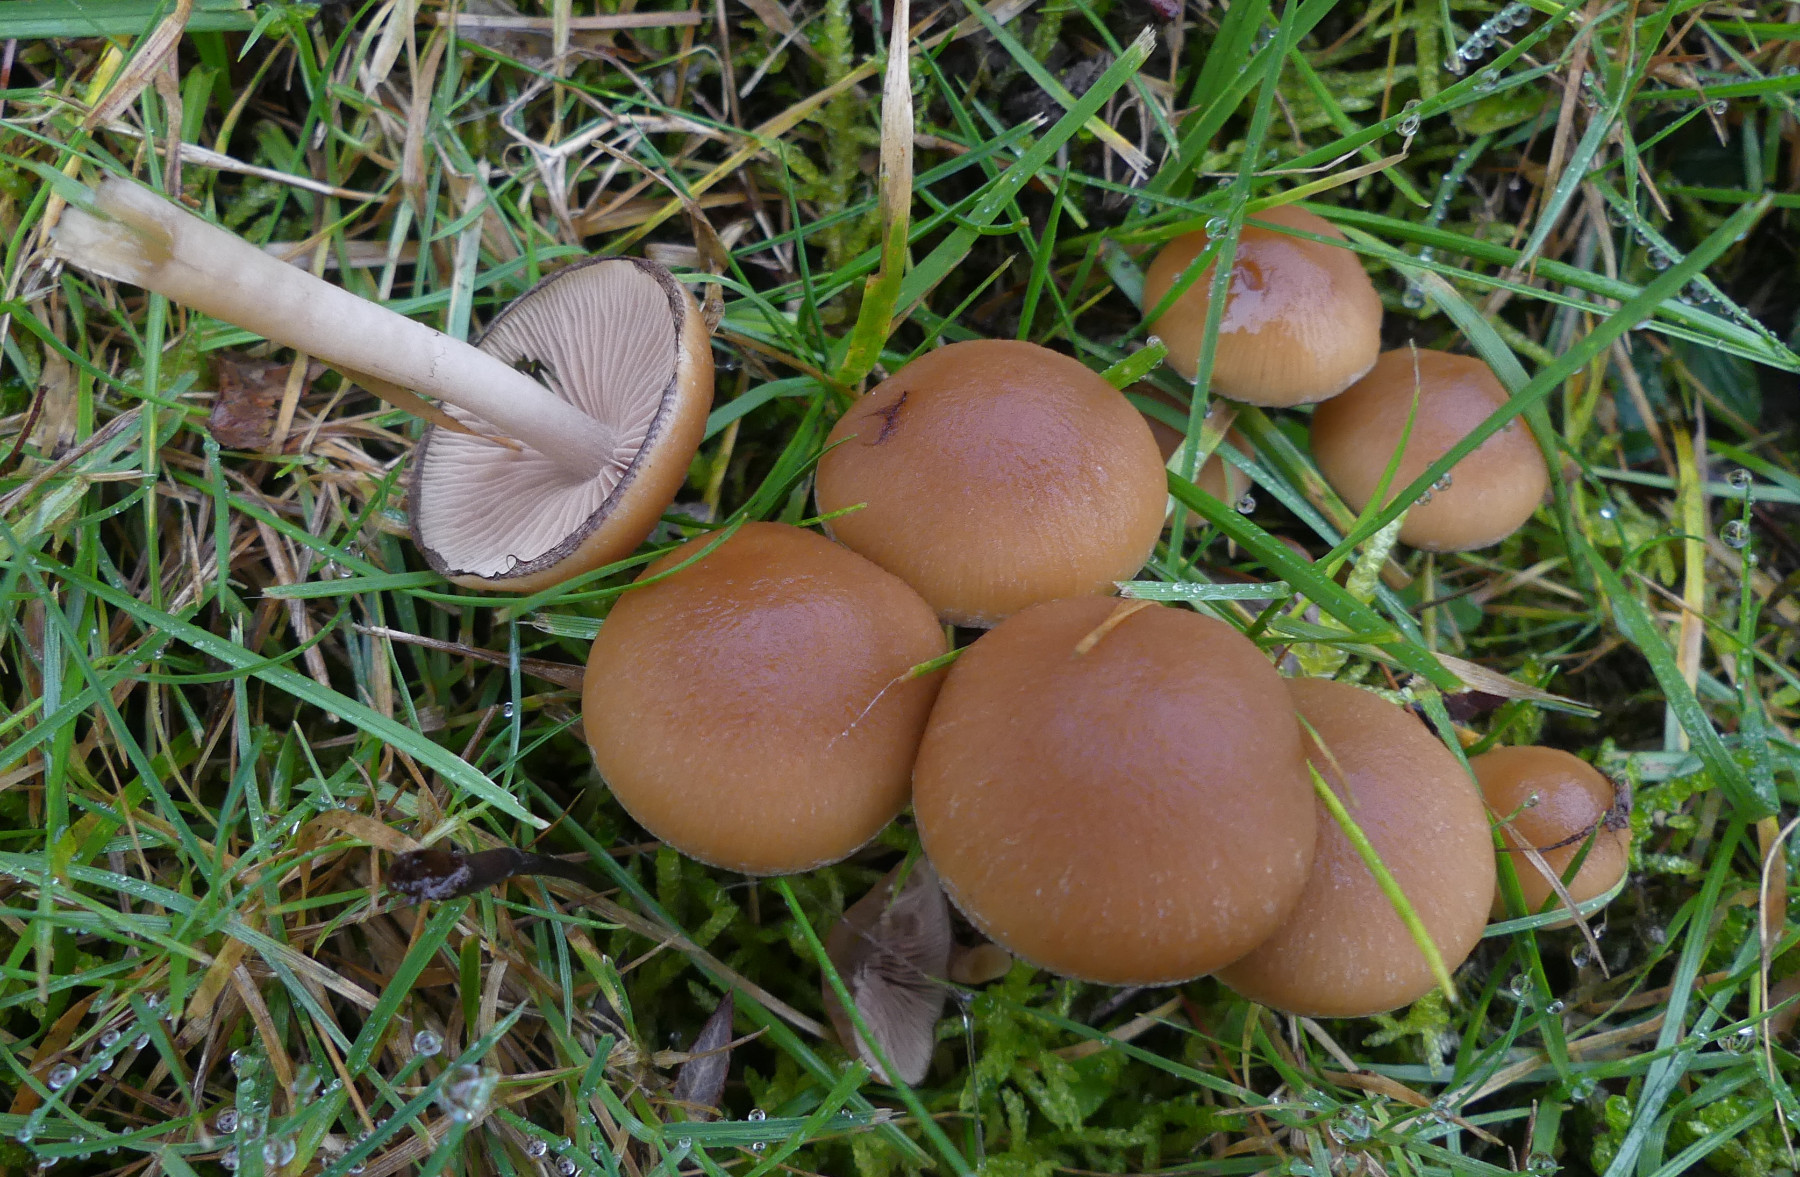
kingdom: Fungi
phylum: Basidiomycota
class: Agaricomycetes
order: Agaricales
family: Psathyrellaceae
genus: Psathyrella
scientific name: Psathyrella piluliformis
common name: lysstokket mørkhat
